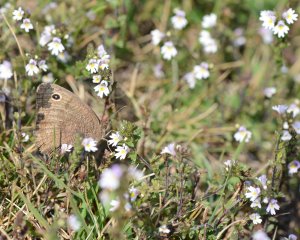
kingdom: Animalia
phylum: Arthropoda
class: Insecta
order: Lepidoptera
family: Nymphalidae
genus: Cercyonis
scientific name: Cercyonis pegala
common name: Common Wood-Nymph
